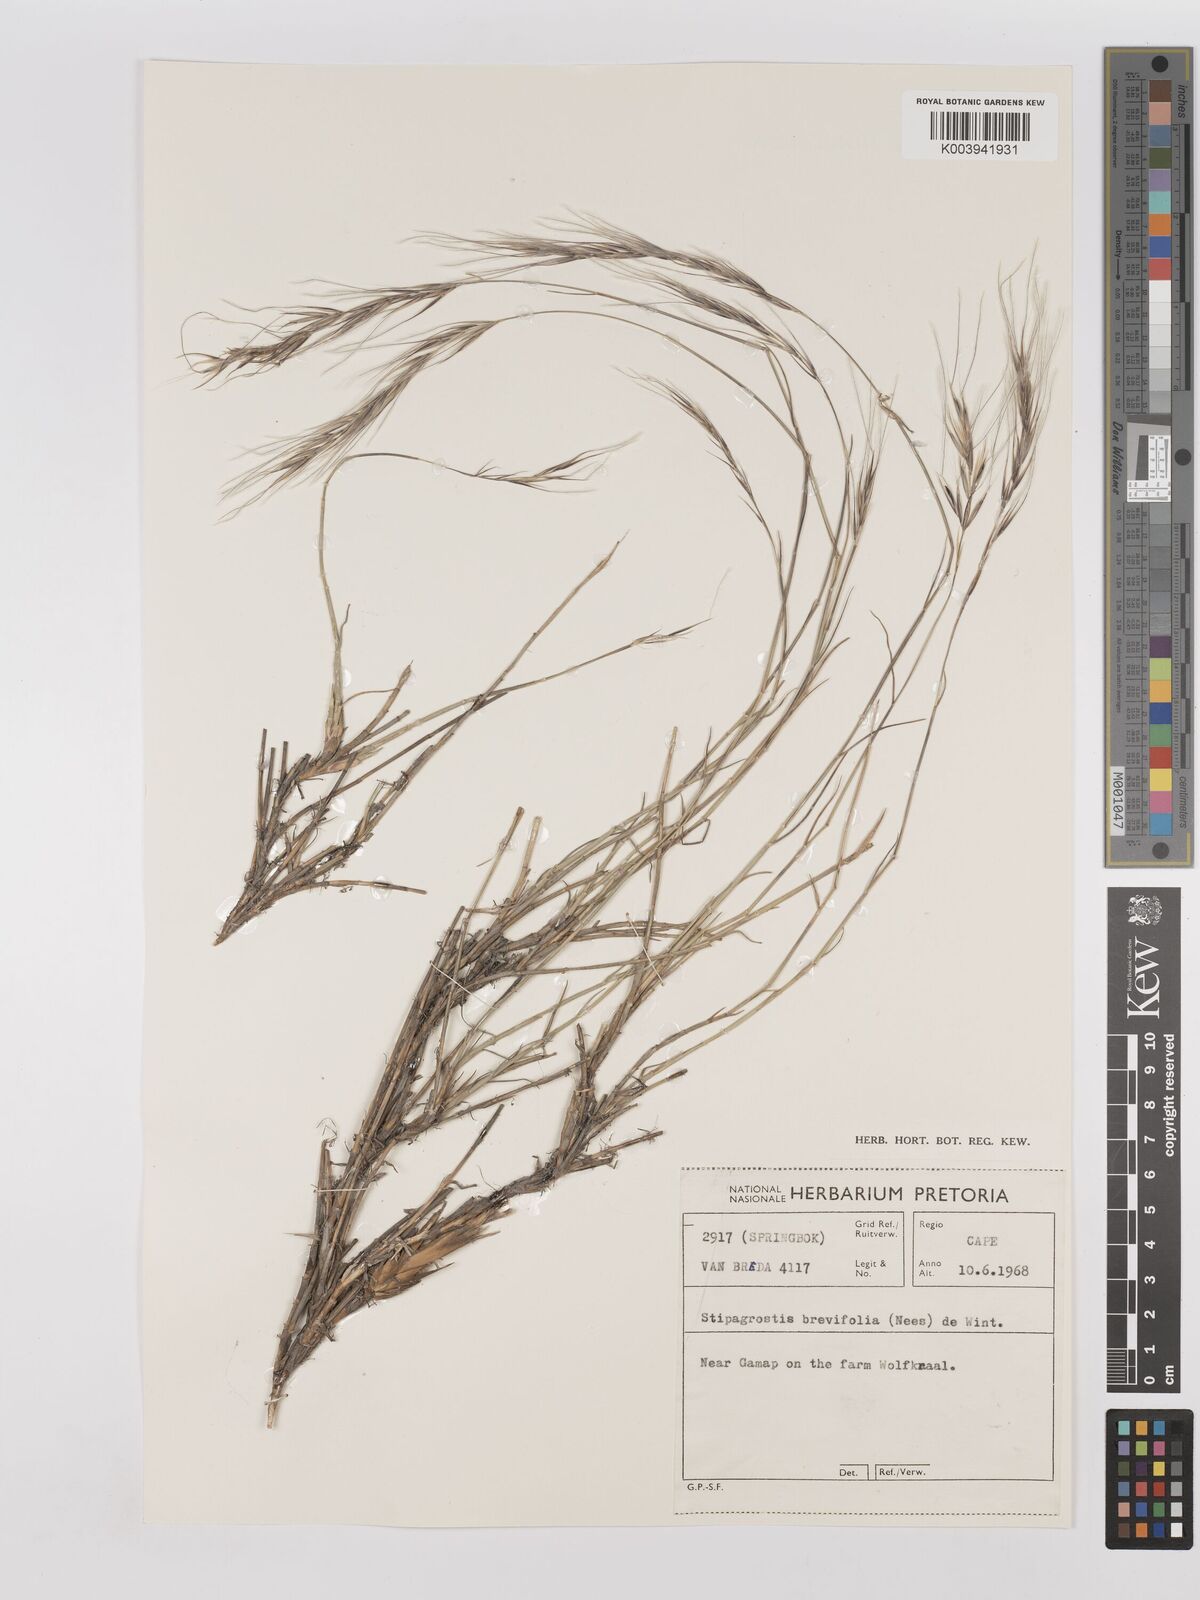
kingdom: Plantae
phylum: Tracheophyta
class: Liliopsida
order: Poales
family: Poaceae
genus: Stipagrostis
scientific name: Stipagrostis brevifolia
